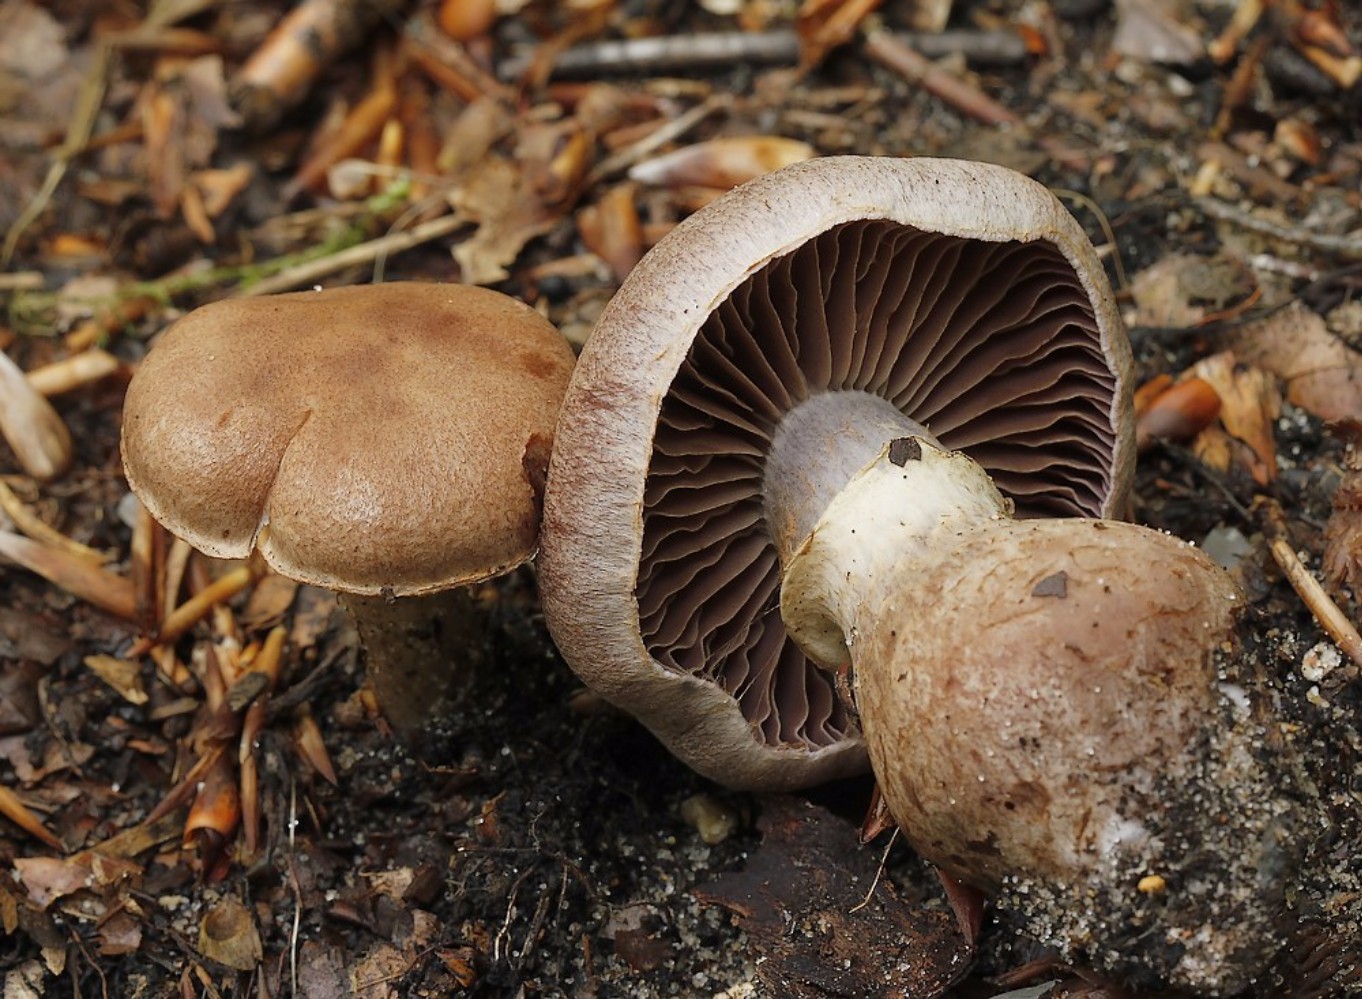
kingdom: Fungi
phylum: Basidiomycota
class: Agaricomycetes
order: Agaricales
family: Cortinariaceae
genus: Cortinarius
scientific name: Cortinarius torvus
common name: champignonagtig slørhat
